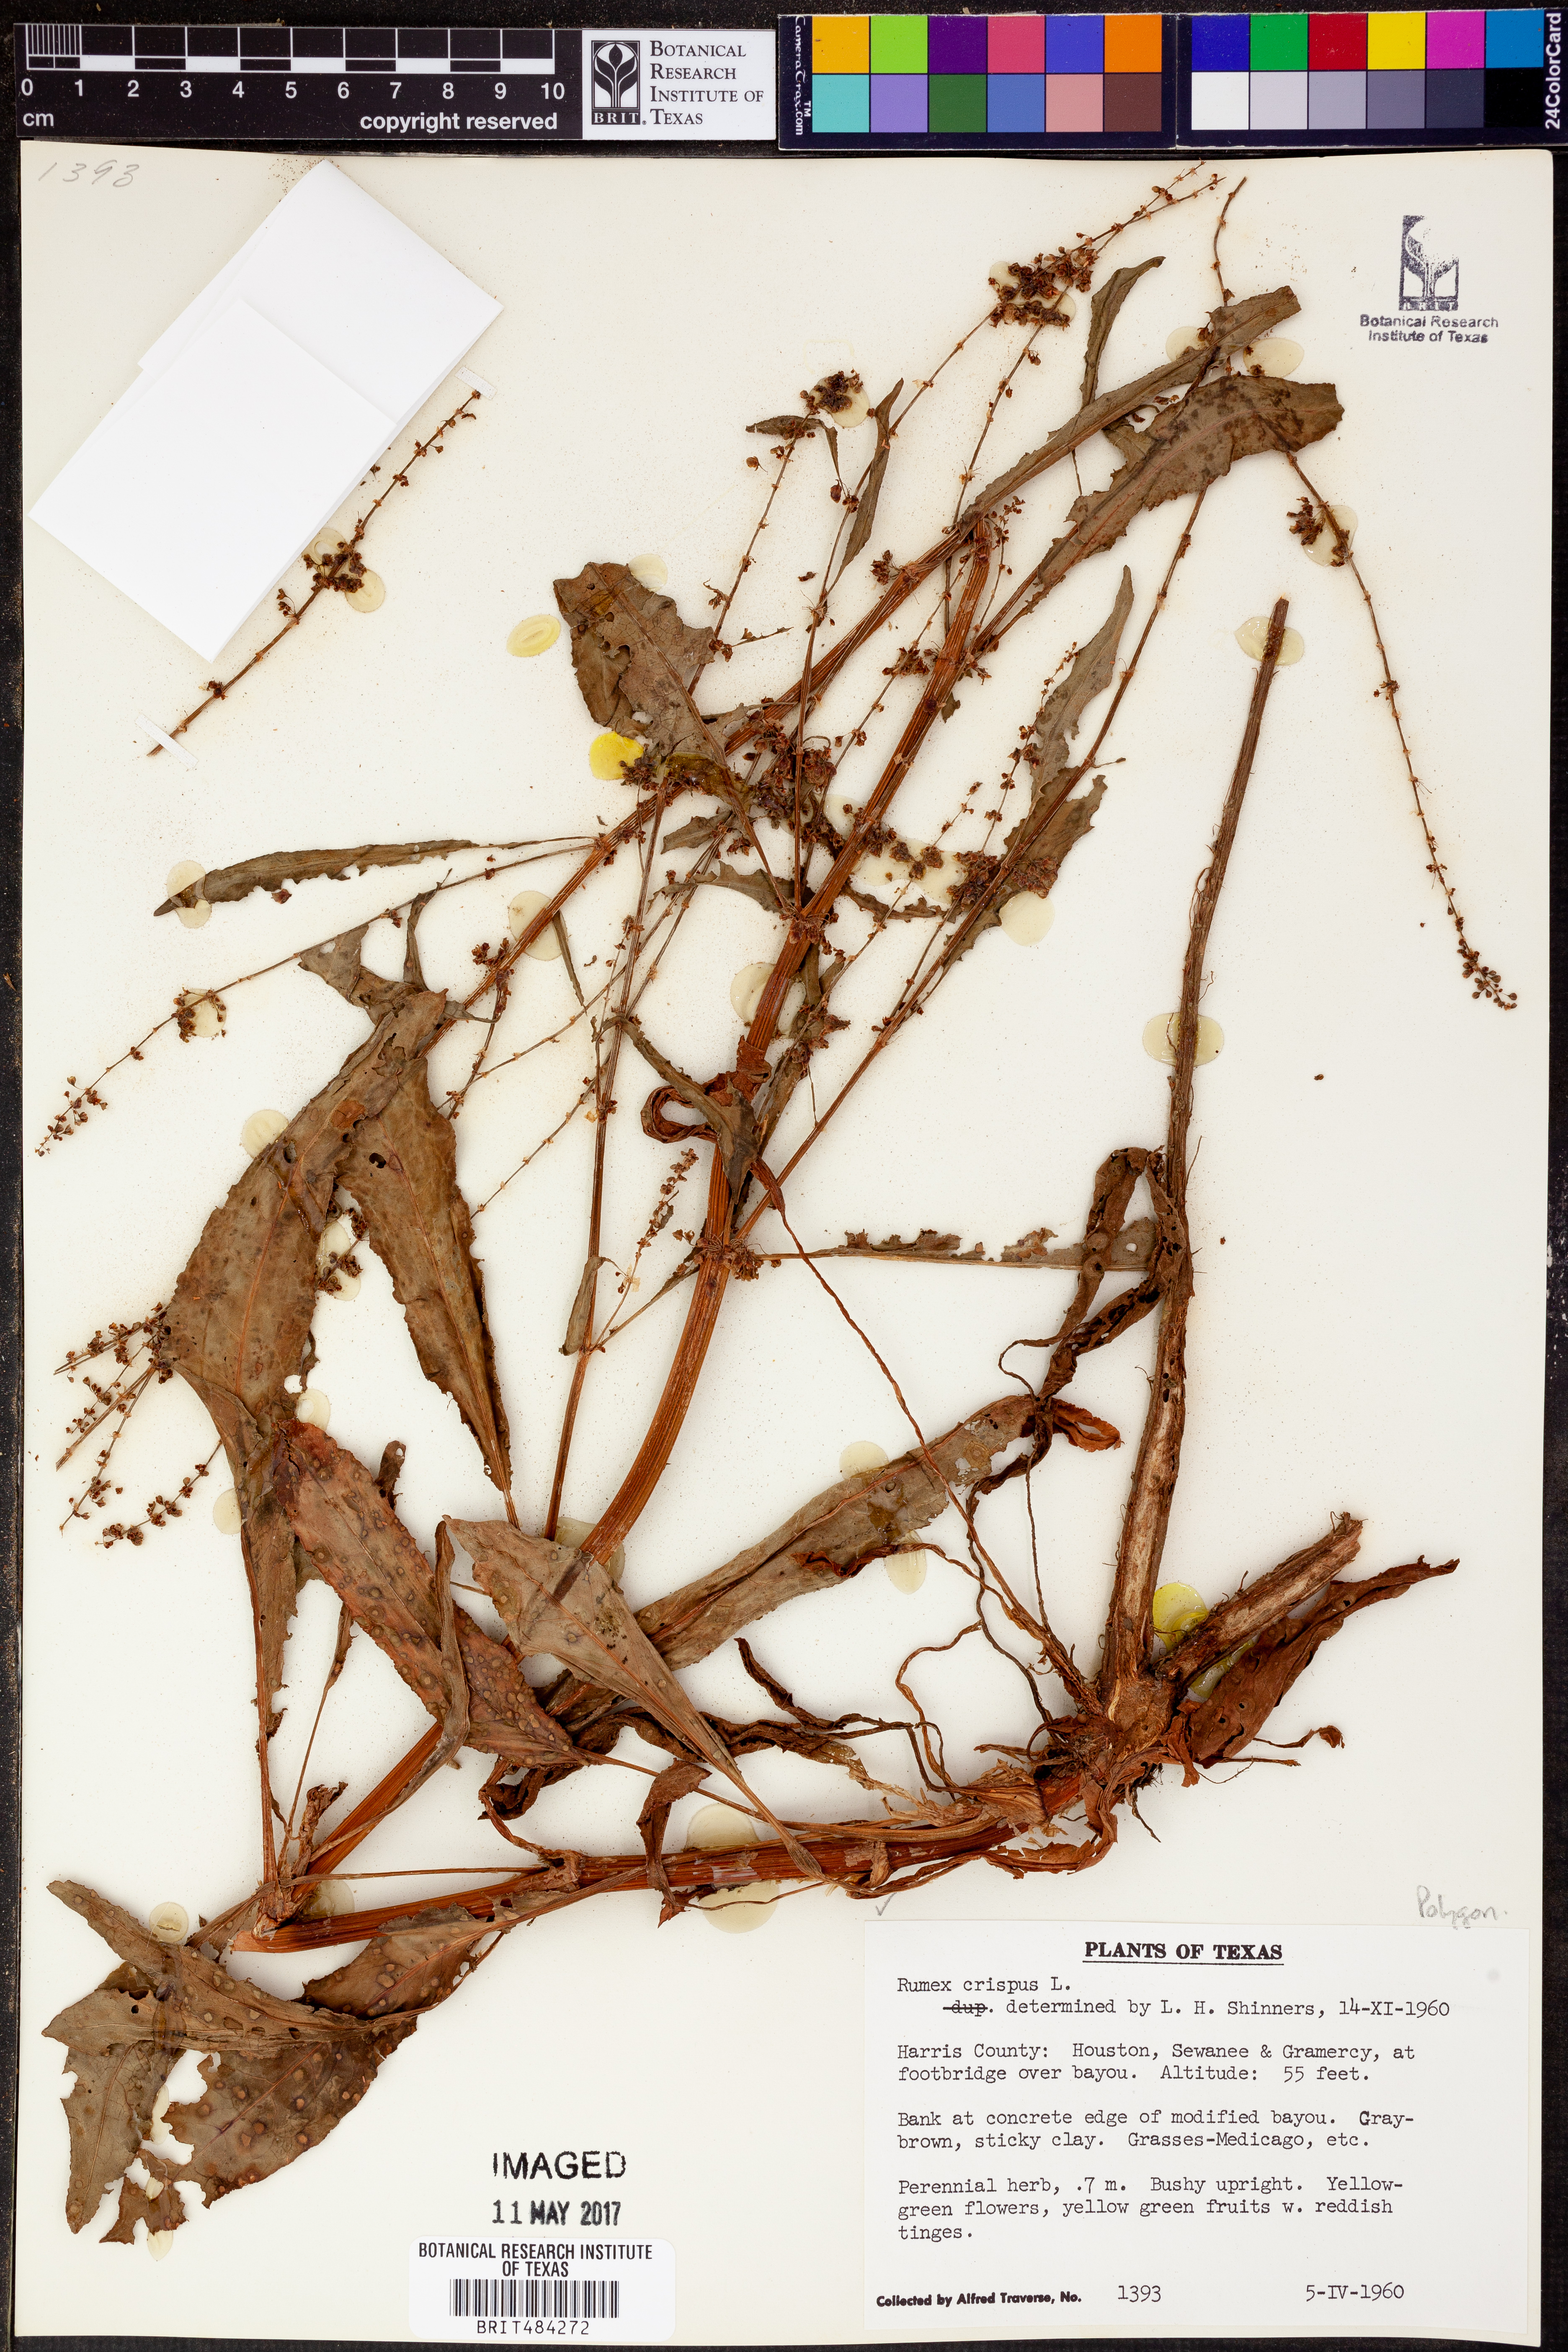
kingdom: Plantae
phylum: Tracheophyta
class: Magnoliopsida
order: Caryophyllales
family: Polygonaceae
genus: Rumex
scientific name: Rumex crispus
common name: Curled dock
